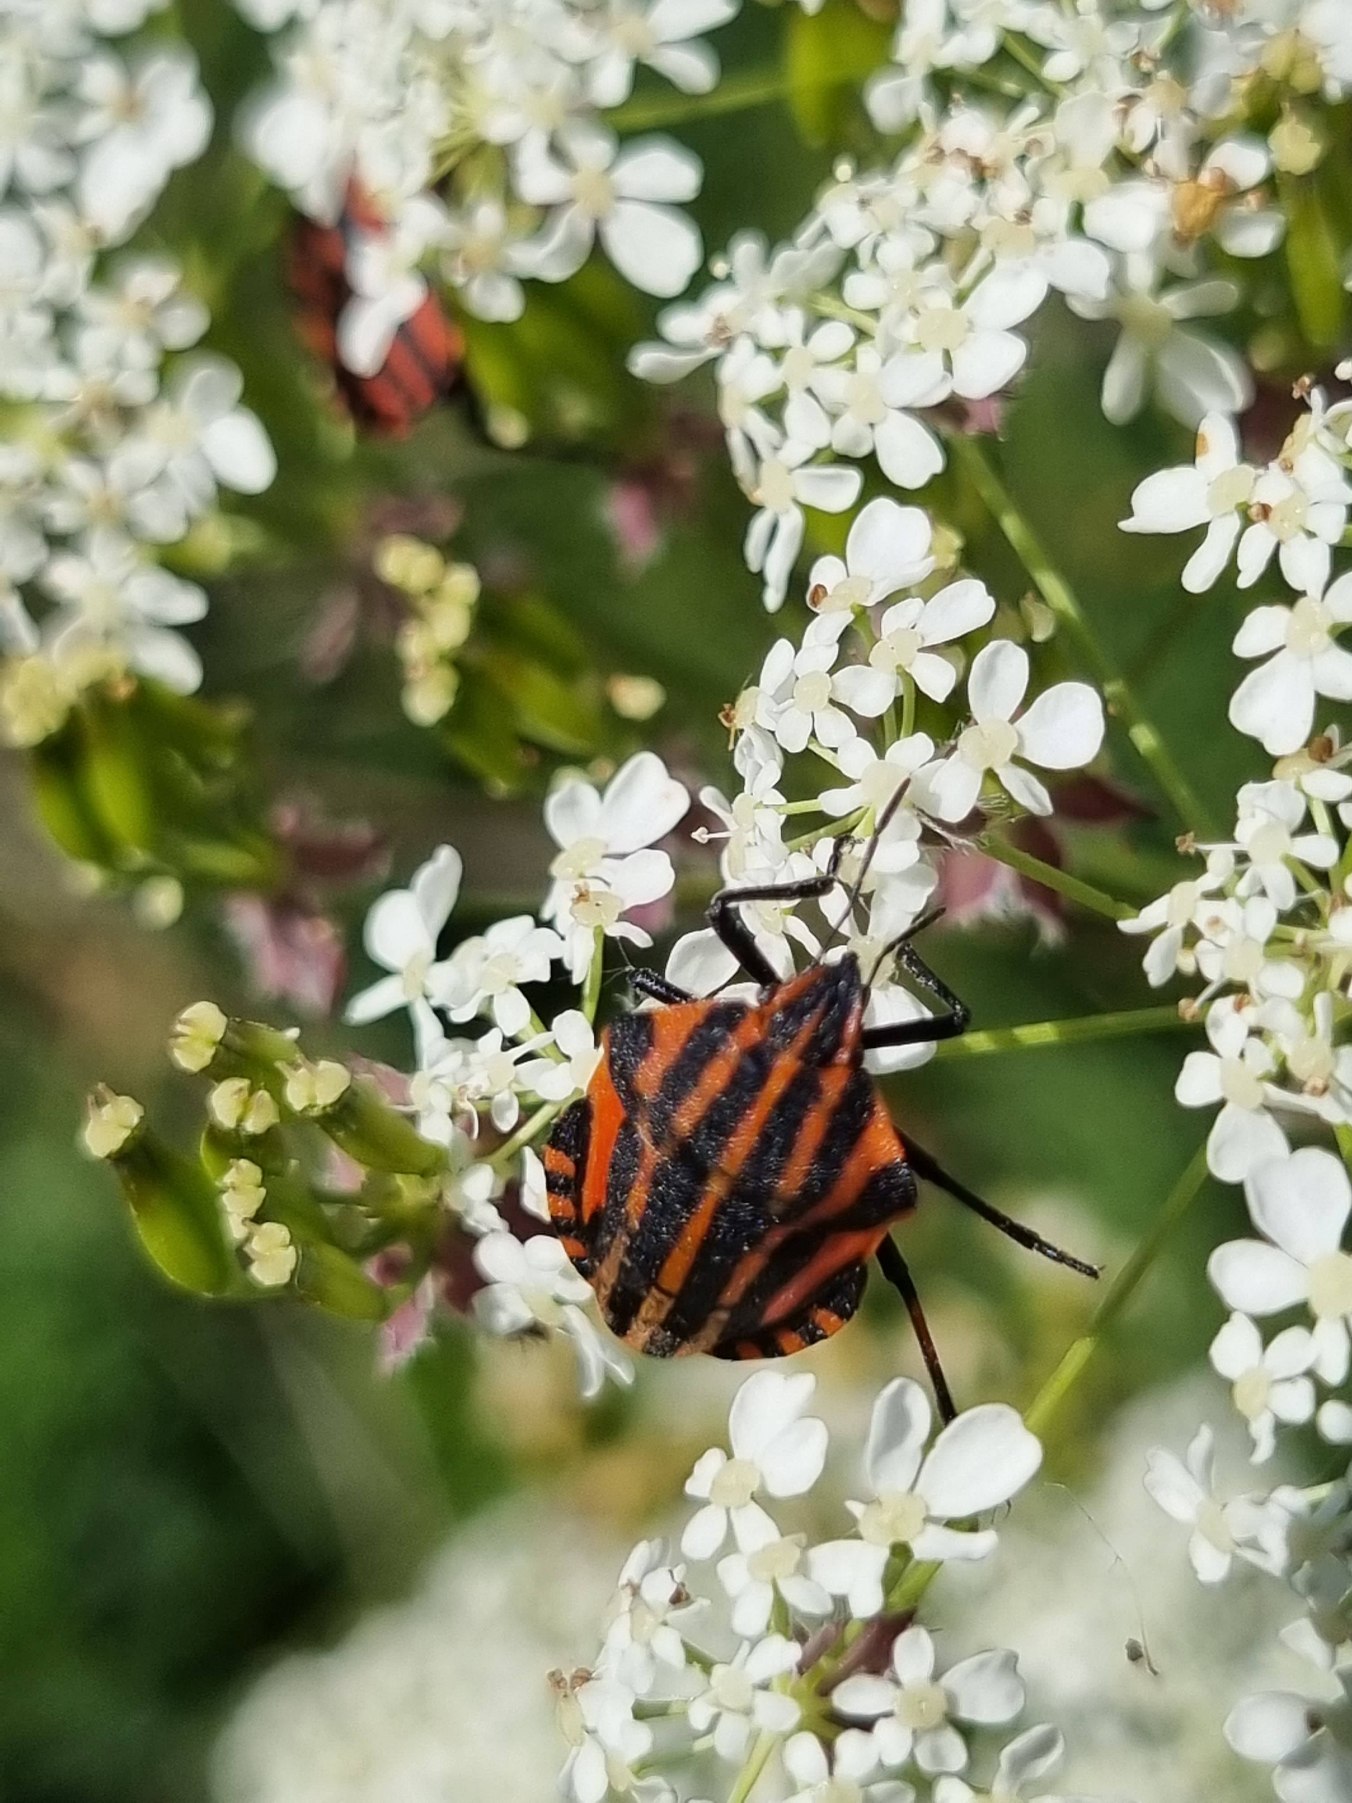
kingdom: Animalia
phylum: Arthropoda
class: Insecta
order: Hemiptera
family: Pentatomidae
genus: Graphosoma
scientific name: Graphosoma italicum
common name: Stribetæge
